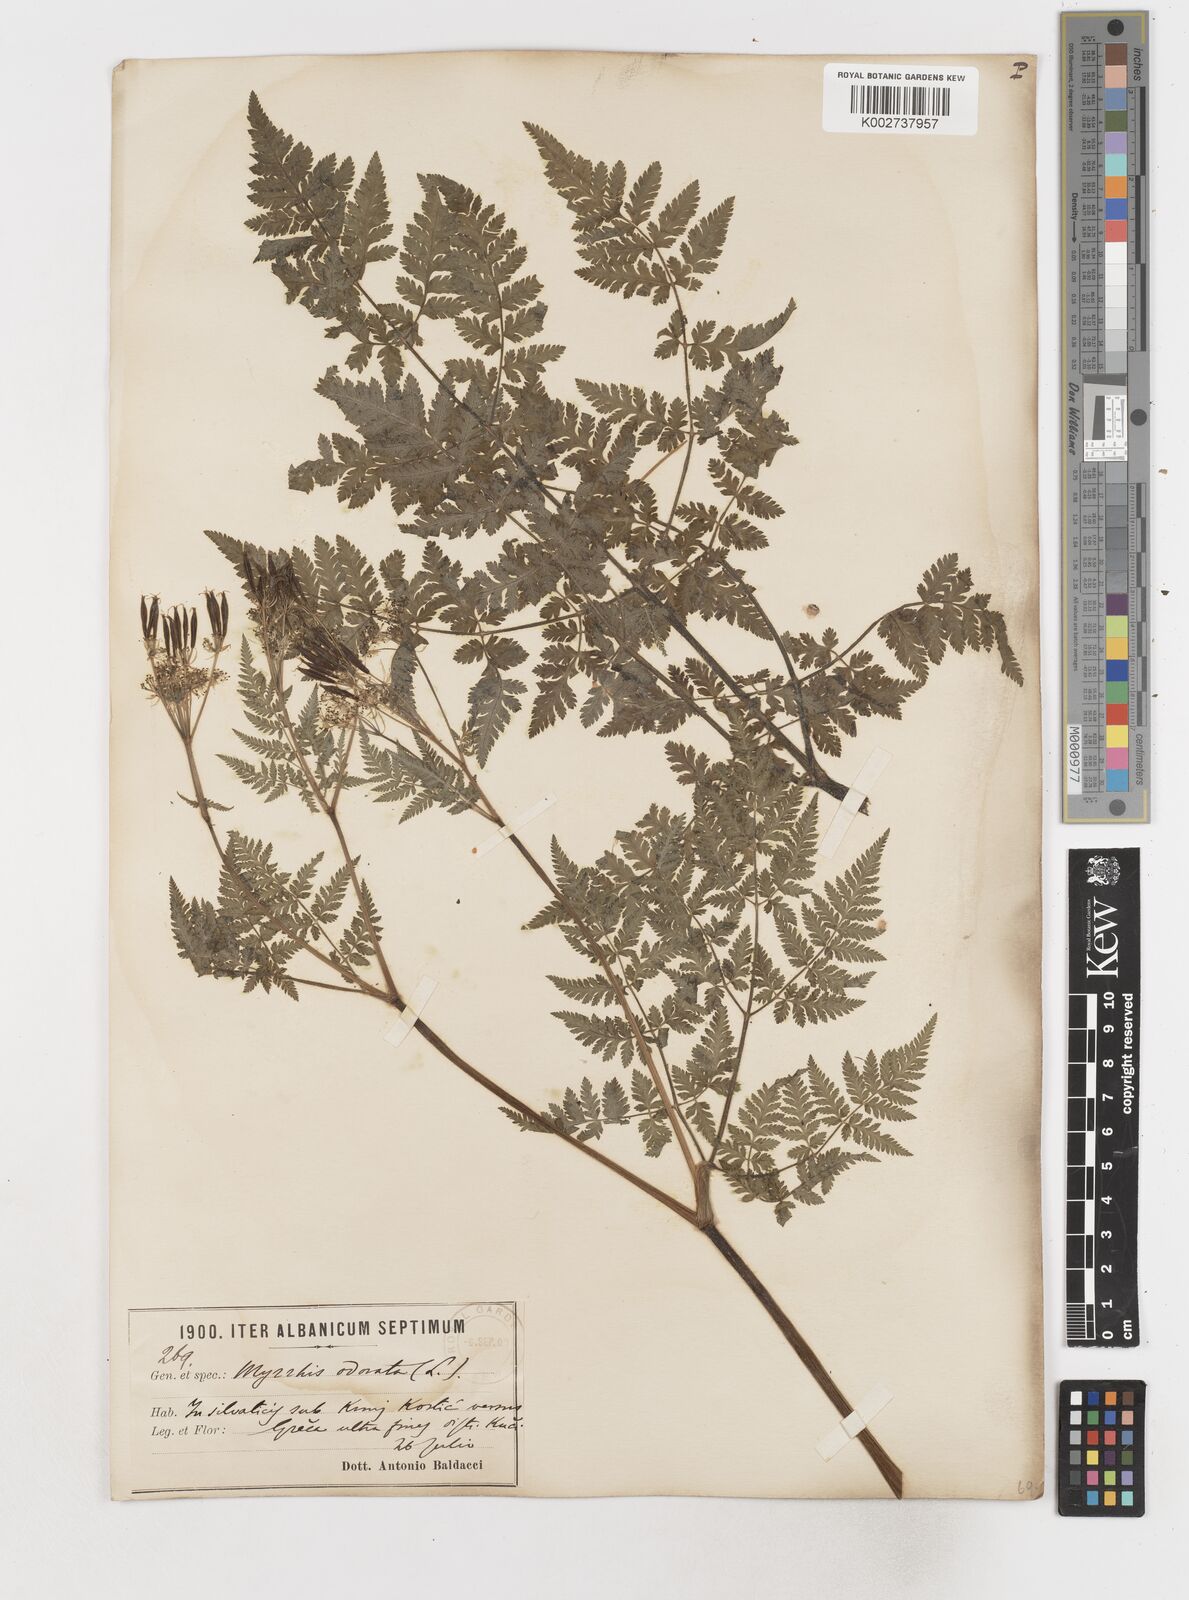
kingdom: Plantae
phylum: Tracheophyta
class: Magnoliopsida
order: Apiales
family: Apiaceae
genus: Myrrhis
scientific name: Myrrhis odorata
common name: Sweet cicely
